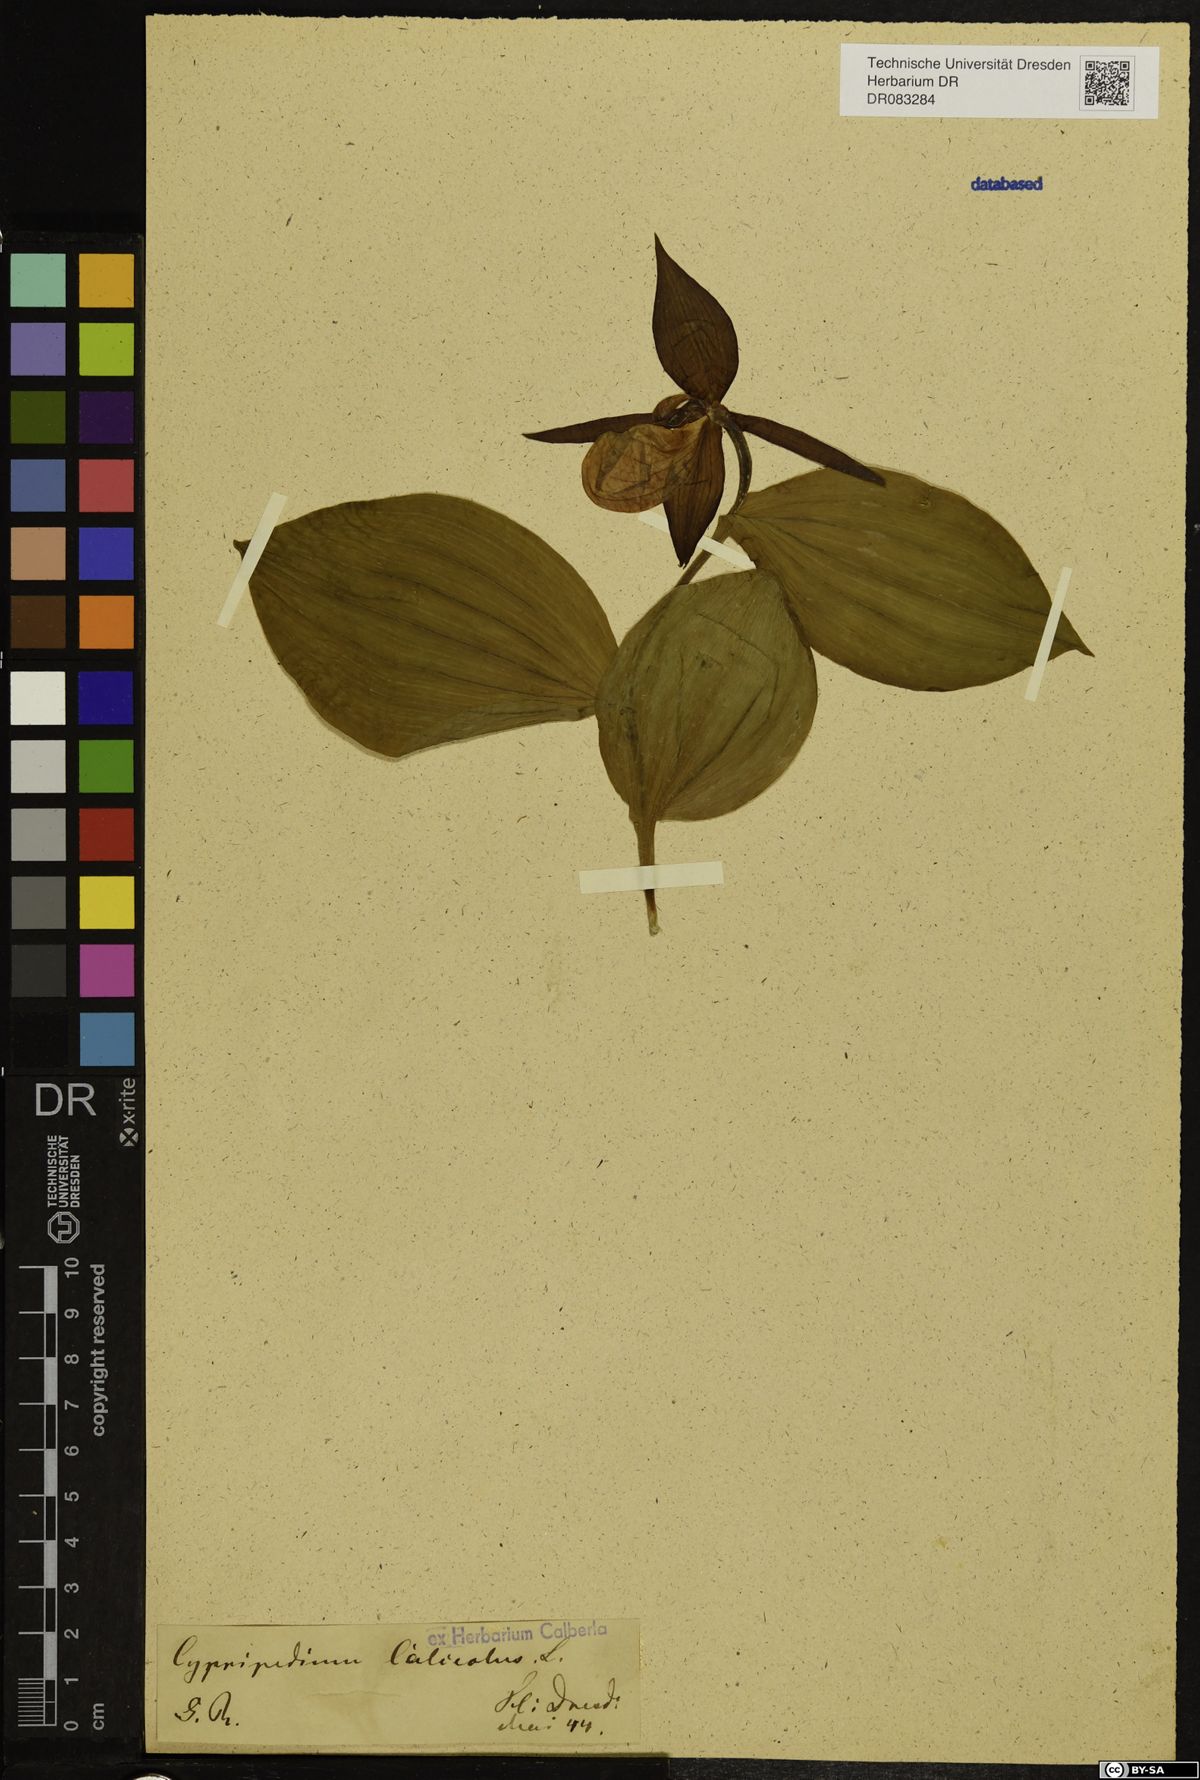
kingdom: Plantae
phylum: Tracheophyta
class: Liliopsida
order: Asparagales
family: Orchidaceae
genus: Cypripedium
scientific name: Cypripedium calceolus
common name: Lady's-slipper
